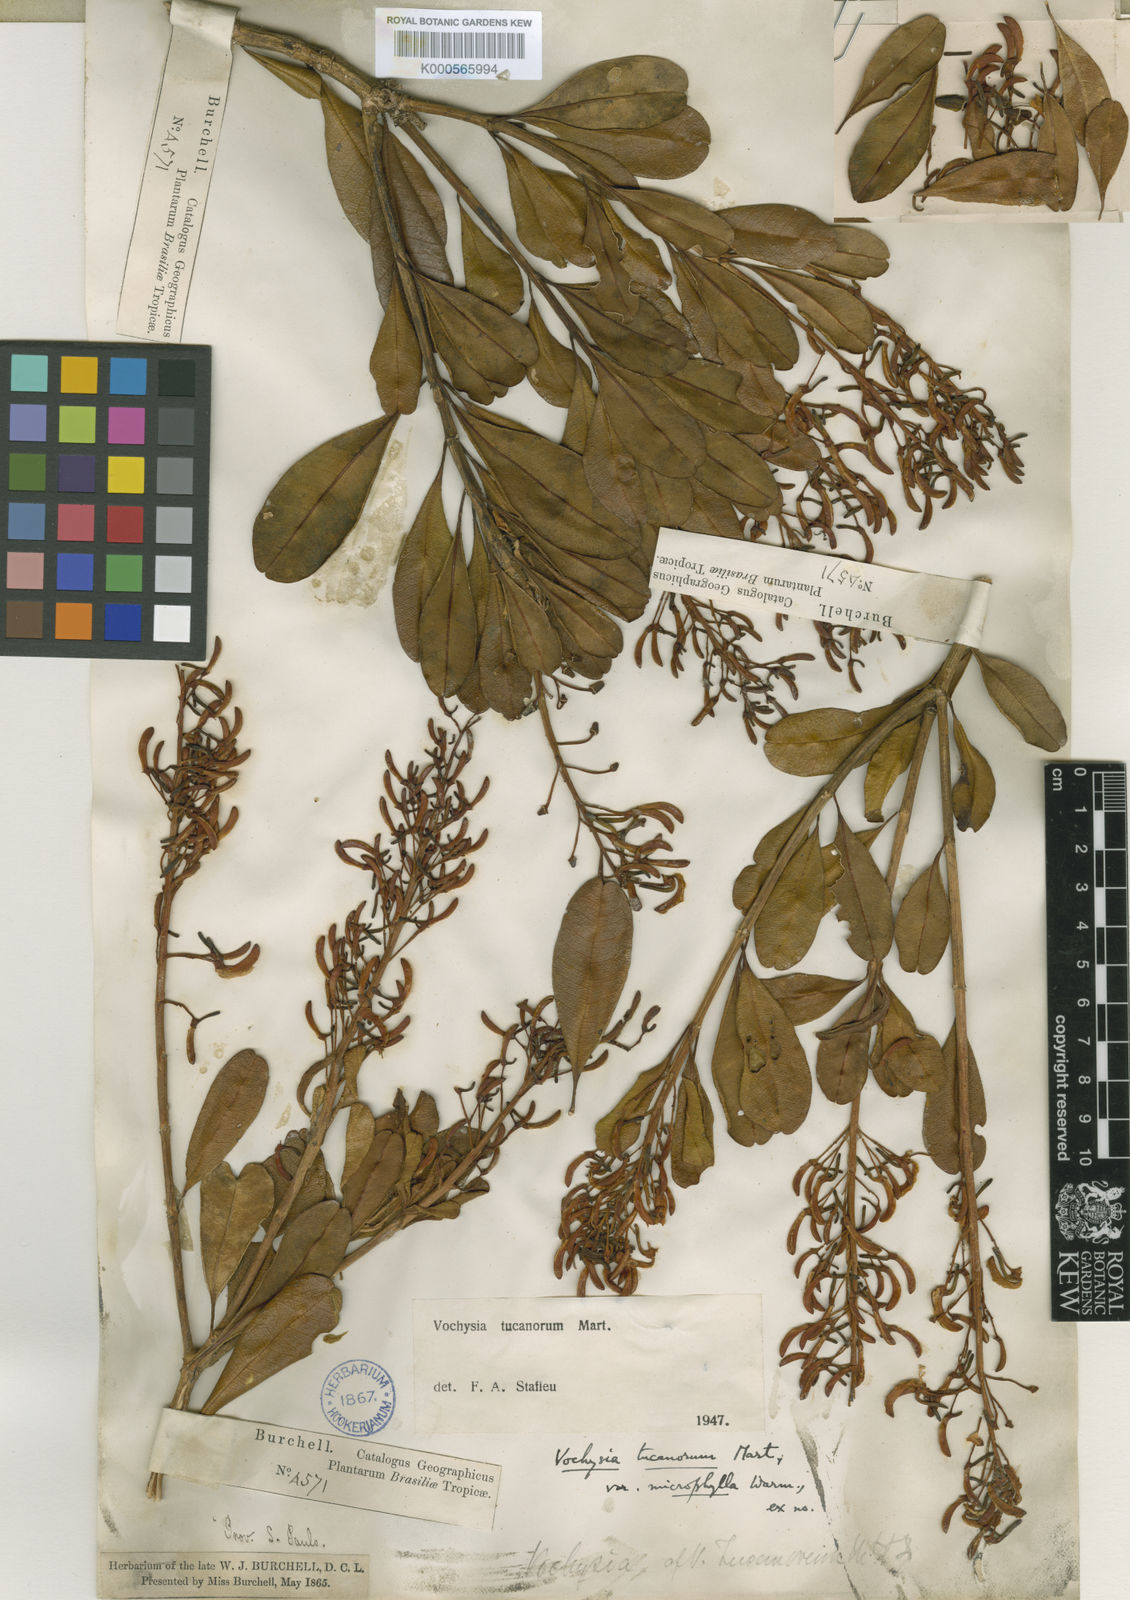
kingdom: Plantae
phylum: Tracheophyta
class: Magnoliopsida
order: Myrtales
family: Vochysiaceae
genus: Vochysia
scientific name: Vochysia tucanorum
